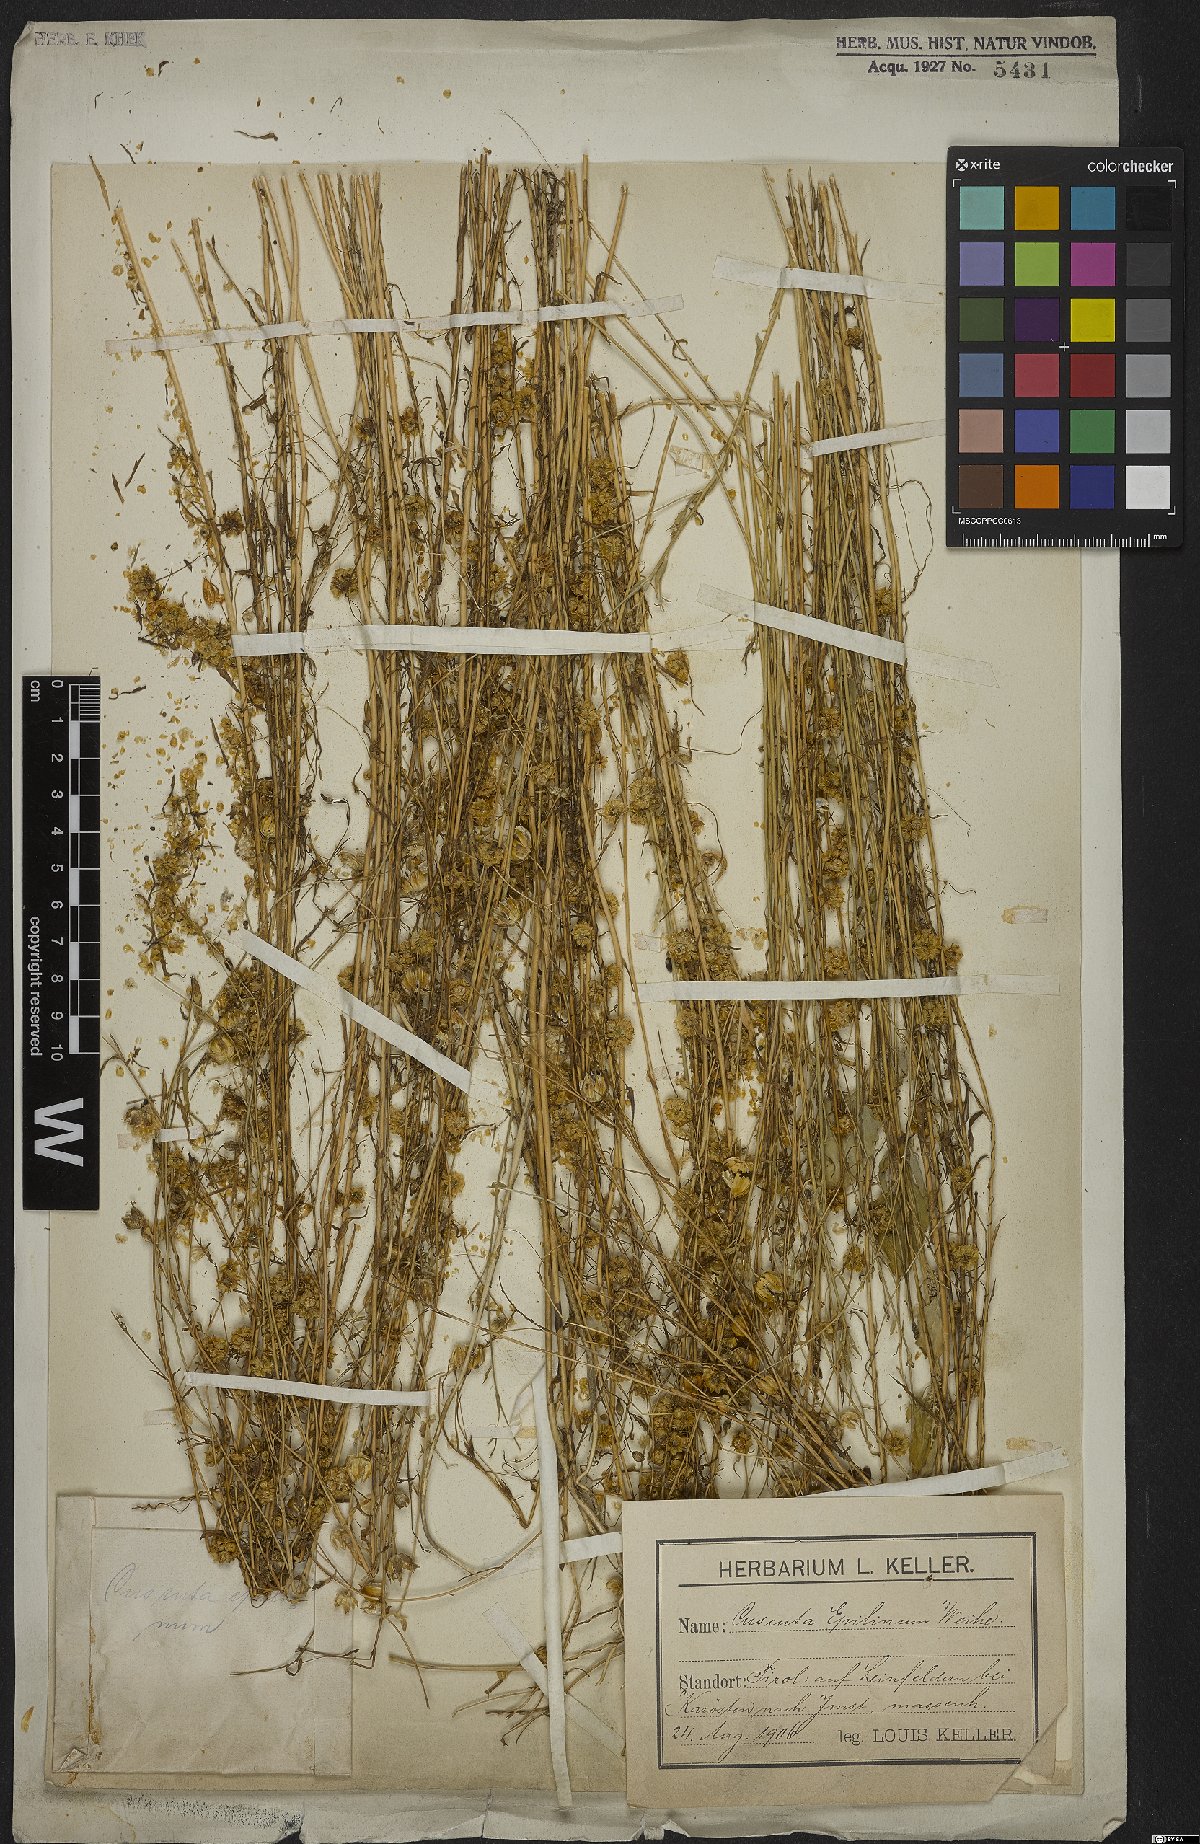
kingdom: Plantae
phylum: Tracheophyta
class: Magnoliopsida
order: Solanales
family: Convolvulaceae
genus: Cuscuta
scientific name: Cuscuta epilinum
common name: Flax dodder
